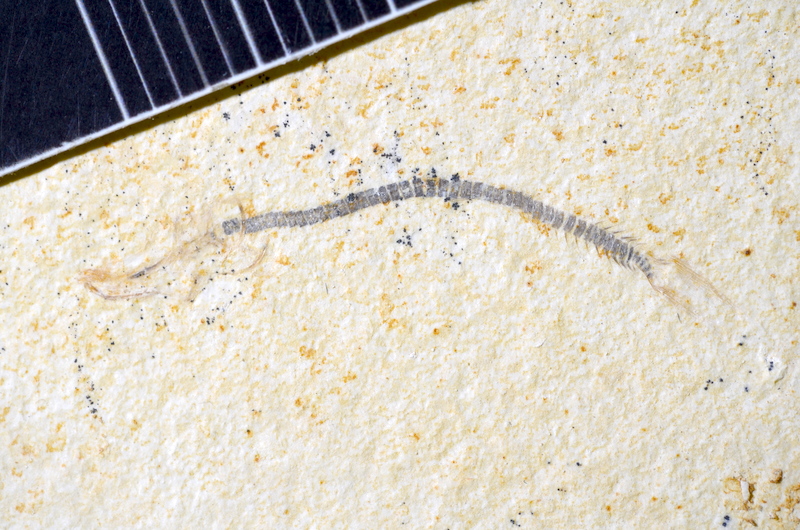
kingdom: Animalia
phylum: Chordata
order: Salmoniformes
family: Orthogonikleithridae
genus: Orthogonikleithrus
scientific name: Orthogonikleithrus hoelli
